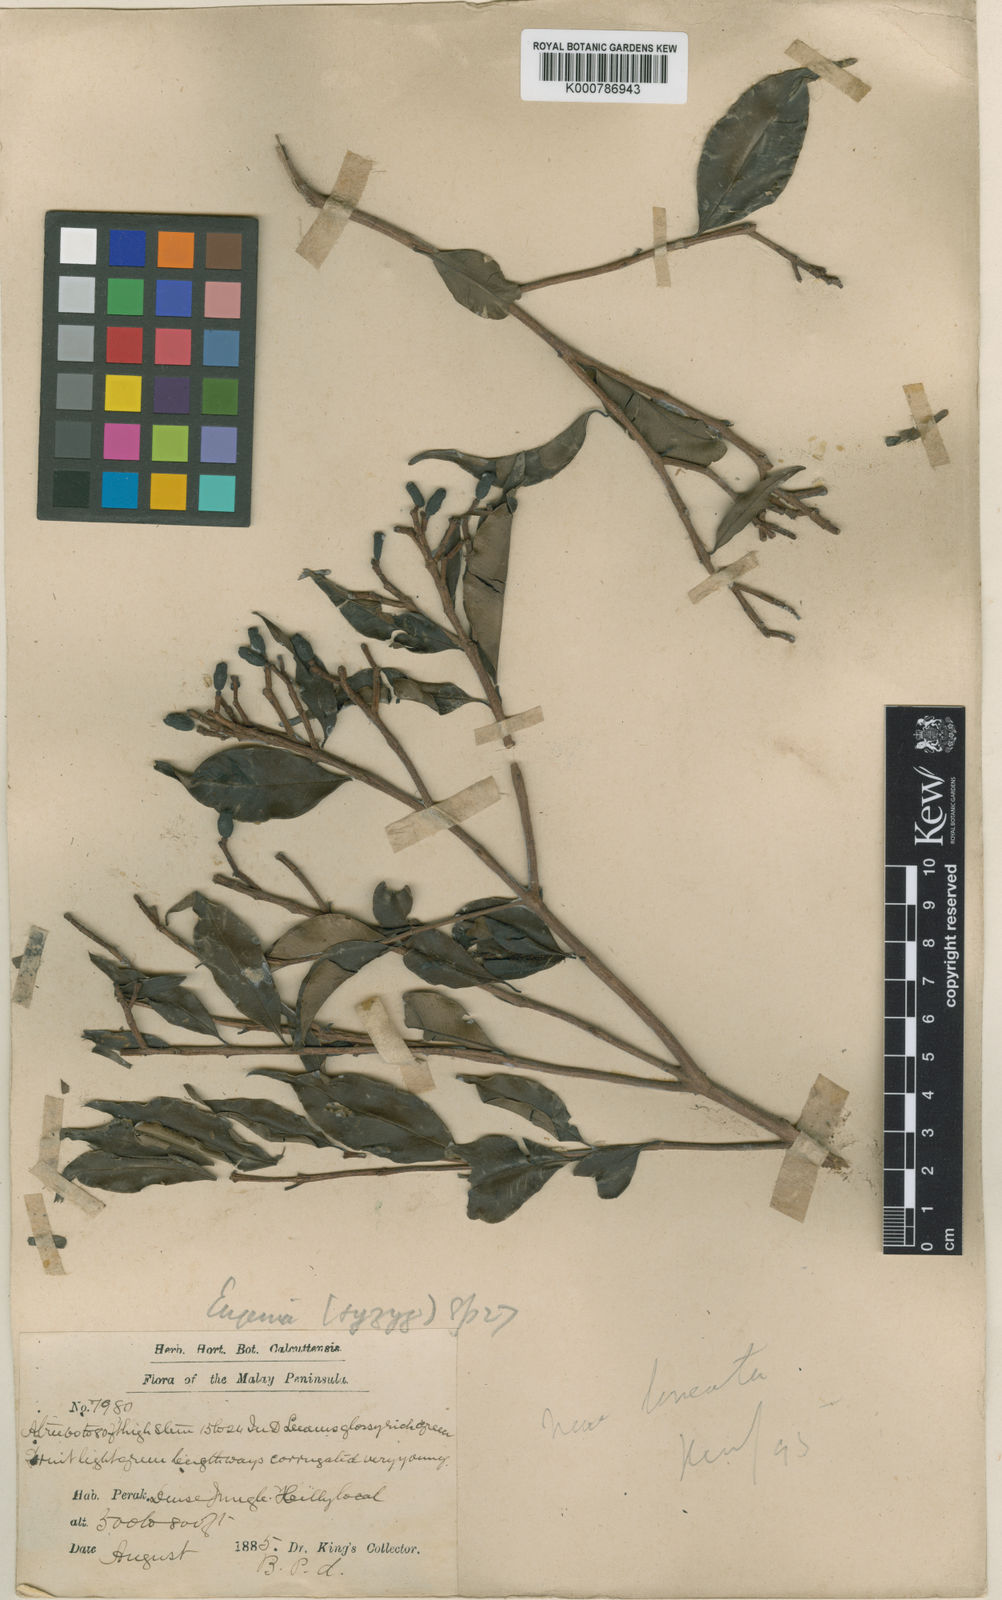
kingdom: Plantae
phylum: Tracheophyta
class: Magnoliopsida
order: Myrtales
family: Myrtaceae
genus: Syzygium
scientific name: Syzygium linocieroideum
